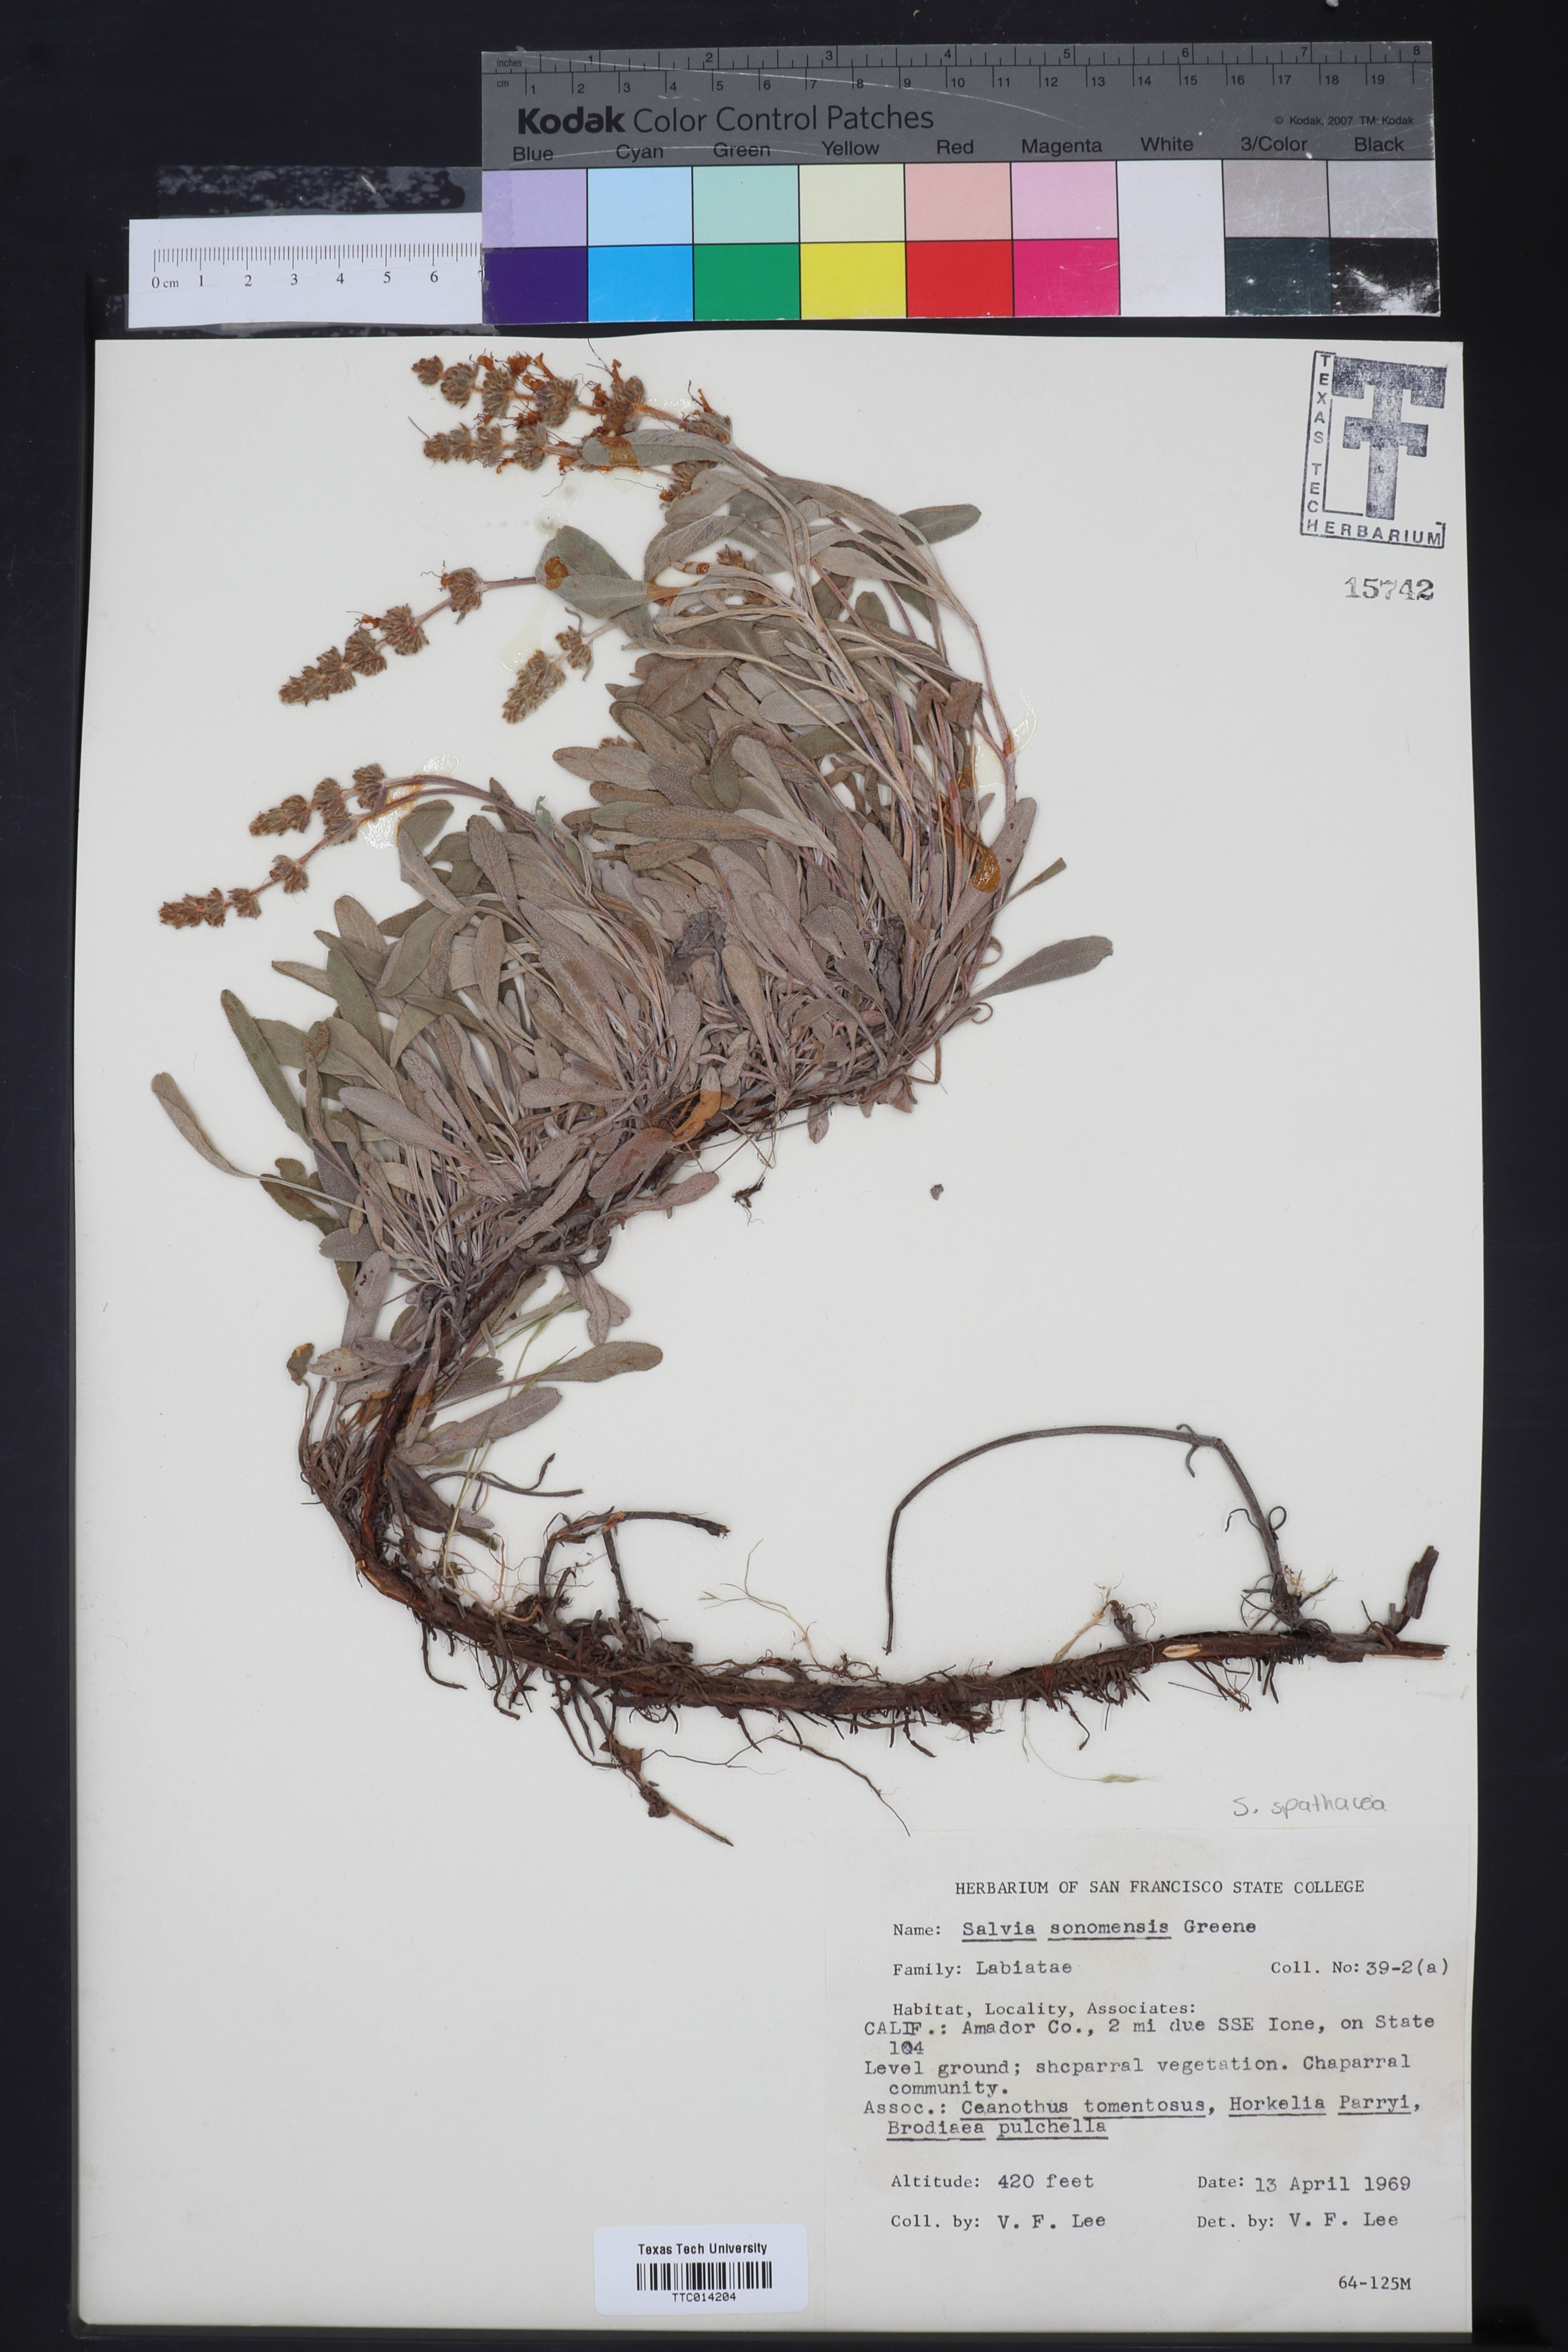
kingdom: Plantae
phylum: Tracheophyta
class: Magnoliopsida
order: Lamiales
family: Lamiaceae
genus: Salvia
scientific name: Salvia sonomensis
